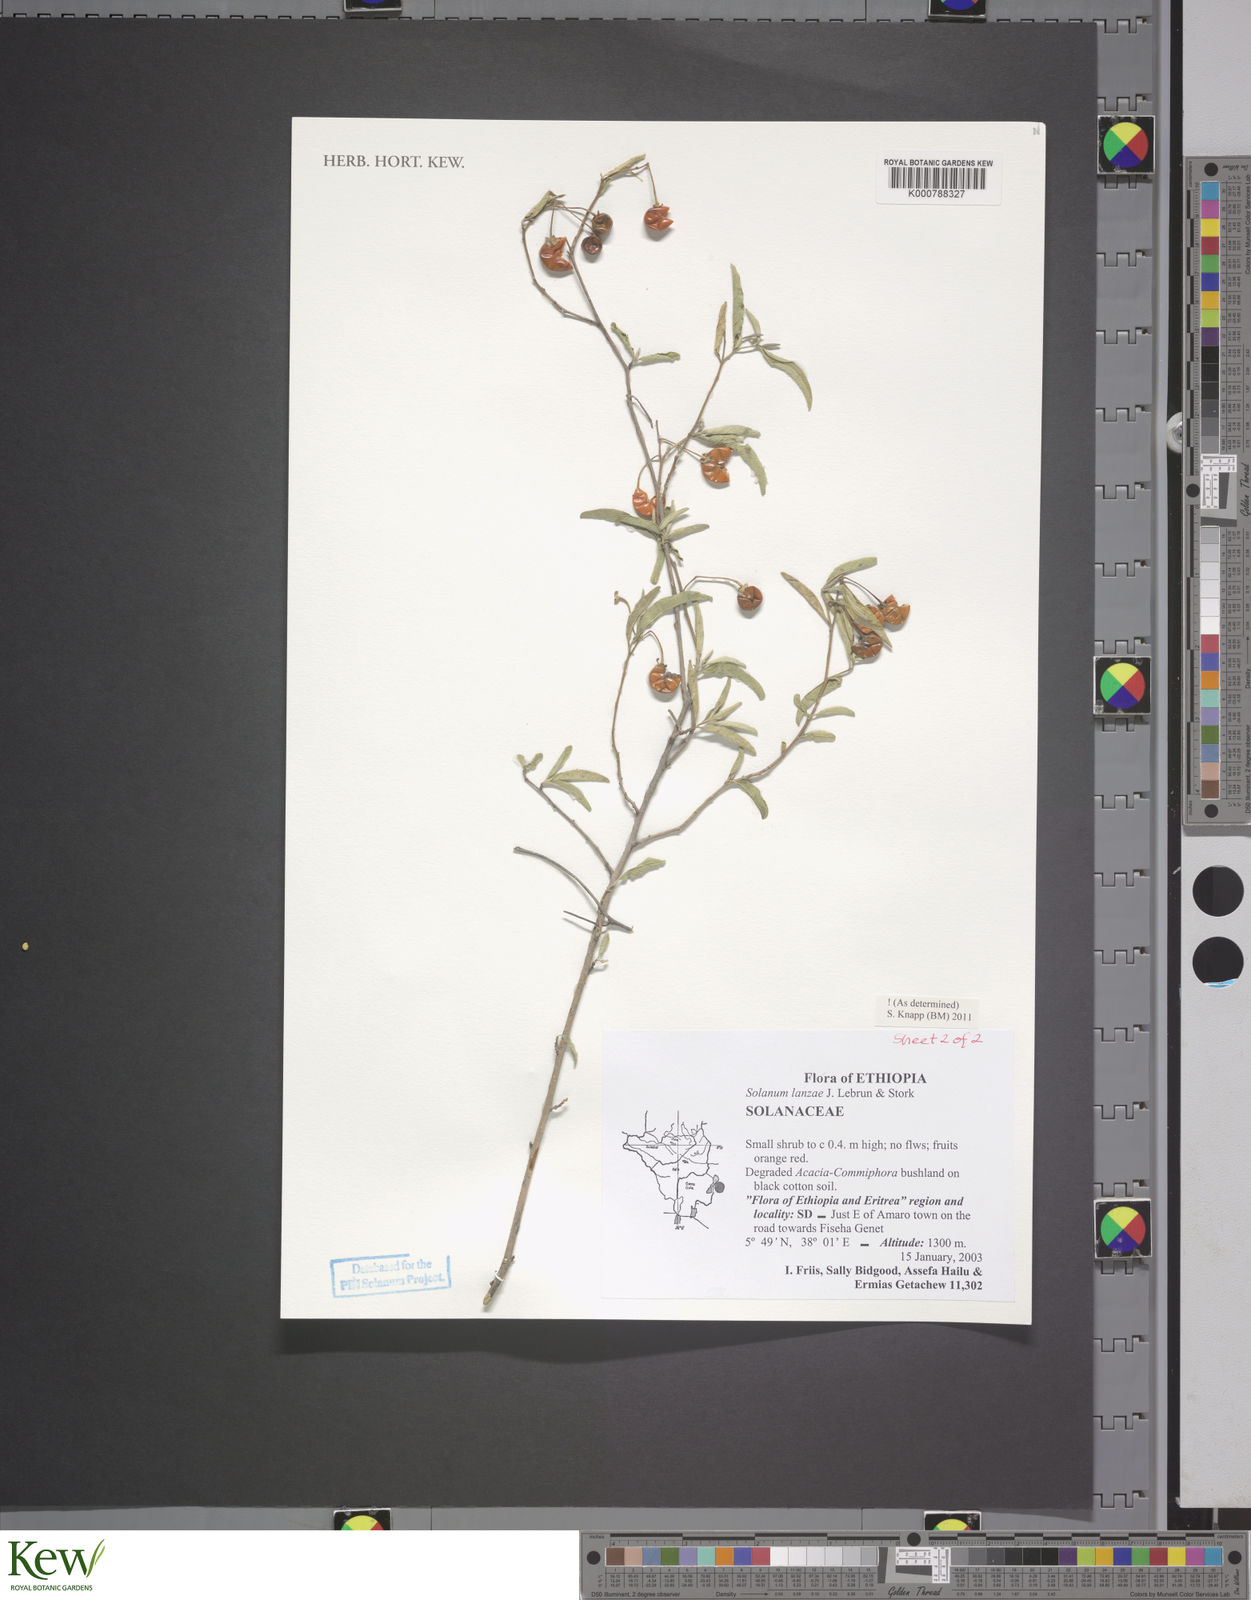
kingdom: Plantae
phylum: Tracheophyta
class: Magnoliopsida
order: Solanales
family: Solanaceae
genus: Solanum
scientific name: Solanum lanzae
